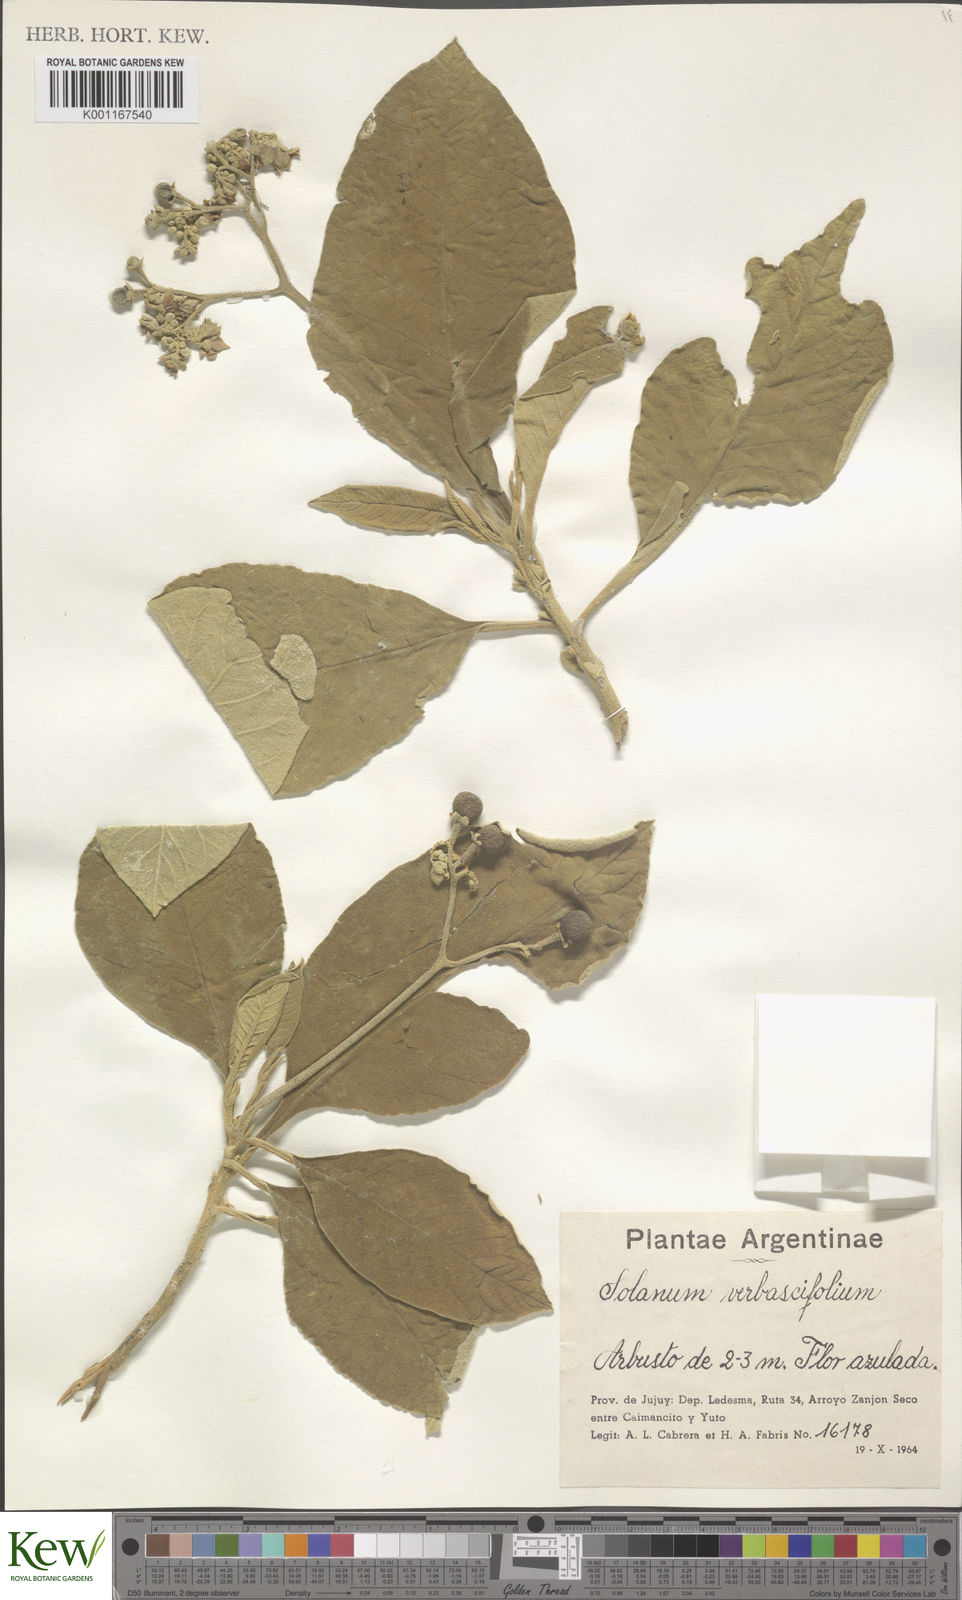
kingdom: Plantae
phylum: Tracheophyta
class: Magnoliopsida
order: Solanales
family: Solanaceae
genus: Solanum
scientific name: Solanum erianthum
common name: Tobacco-tree
